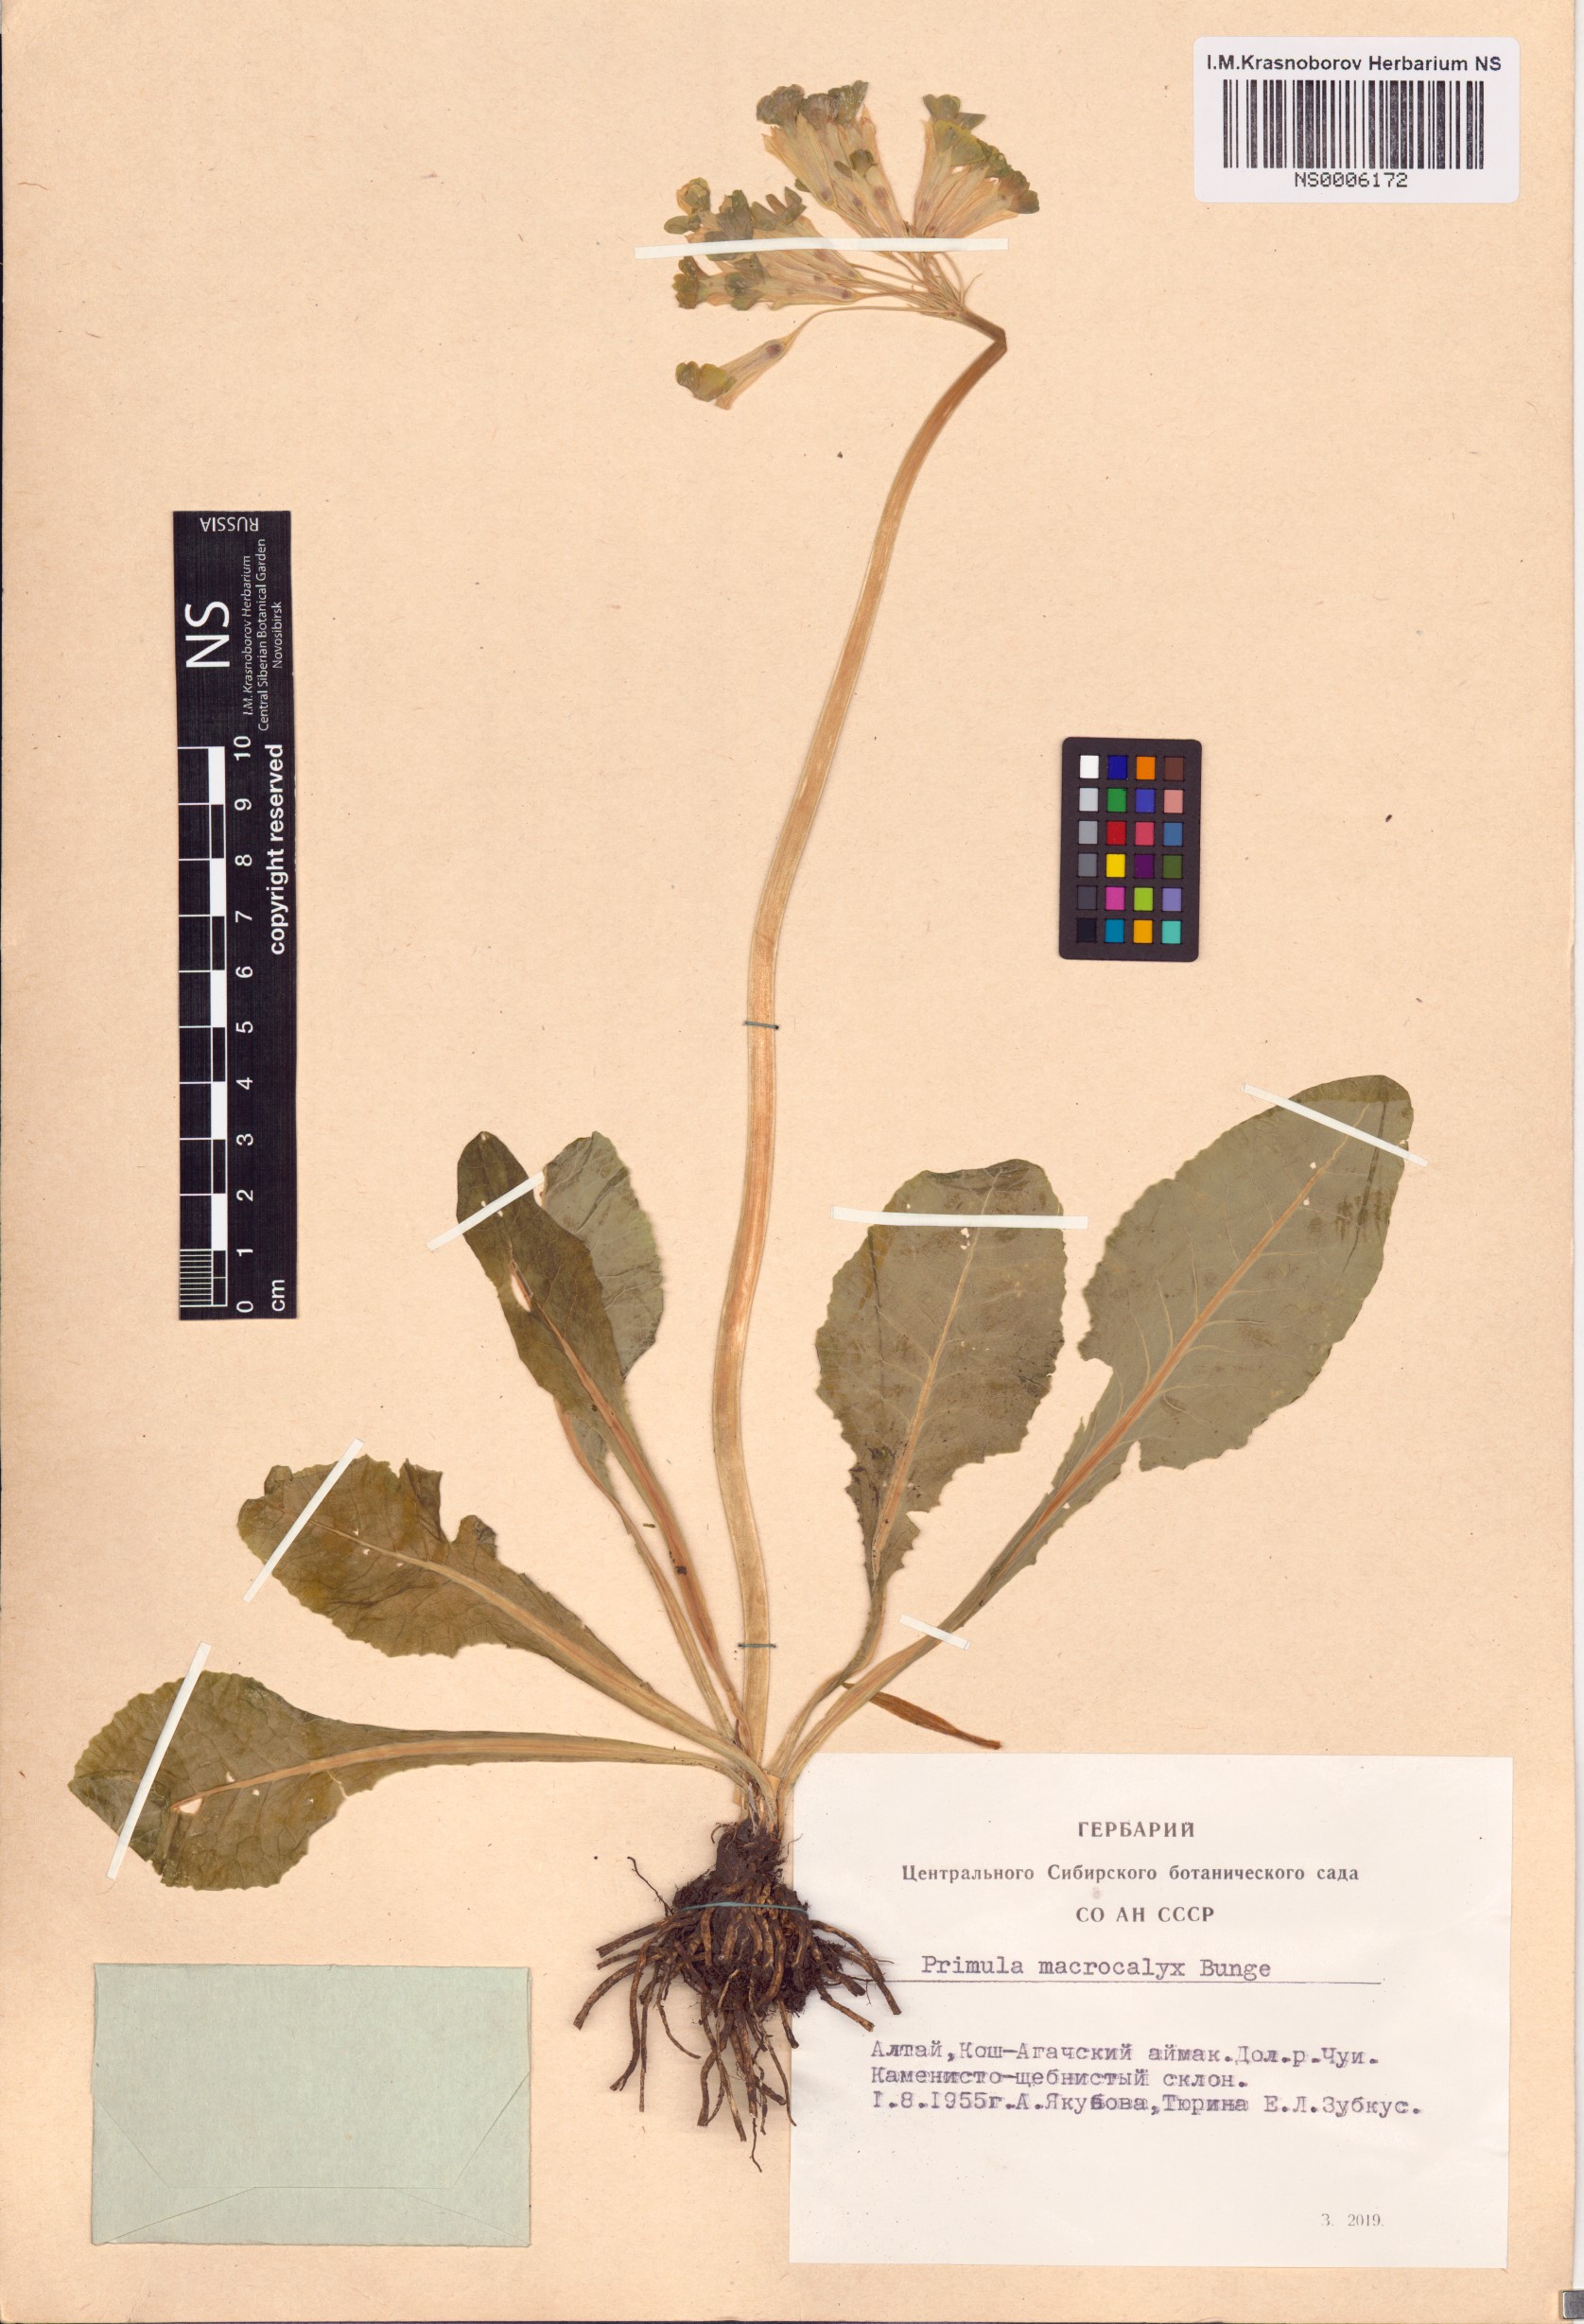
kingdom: Plantae
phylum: Tracheophyta
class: Magnoliopsida
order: Ericales
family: Primulaceae
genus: Primula
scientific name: Primula veris
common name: Cowslip
